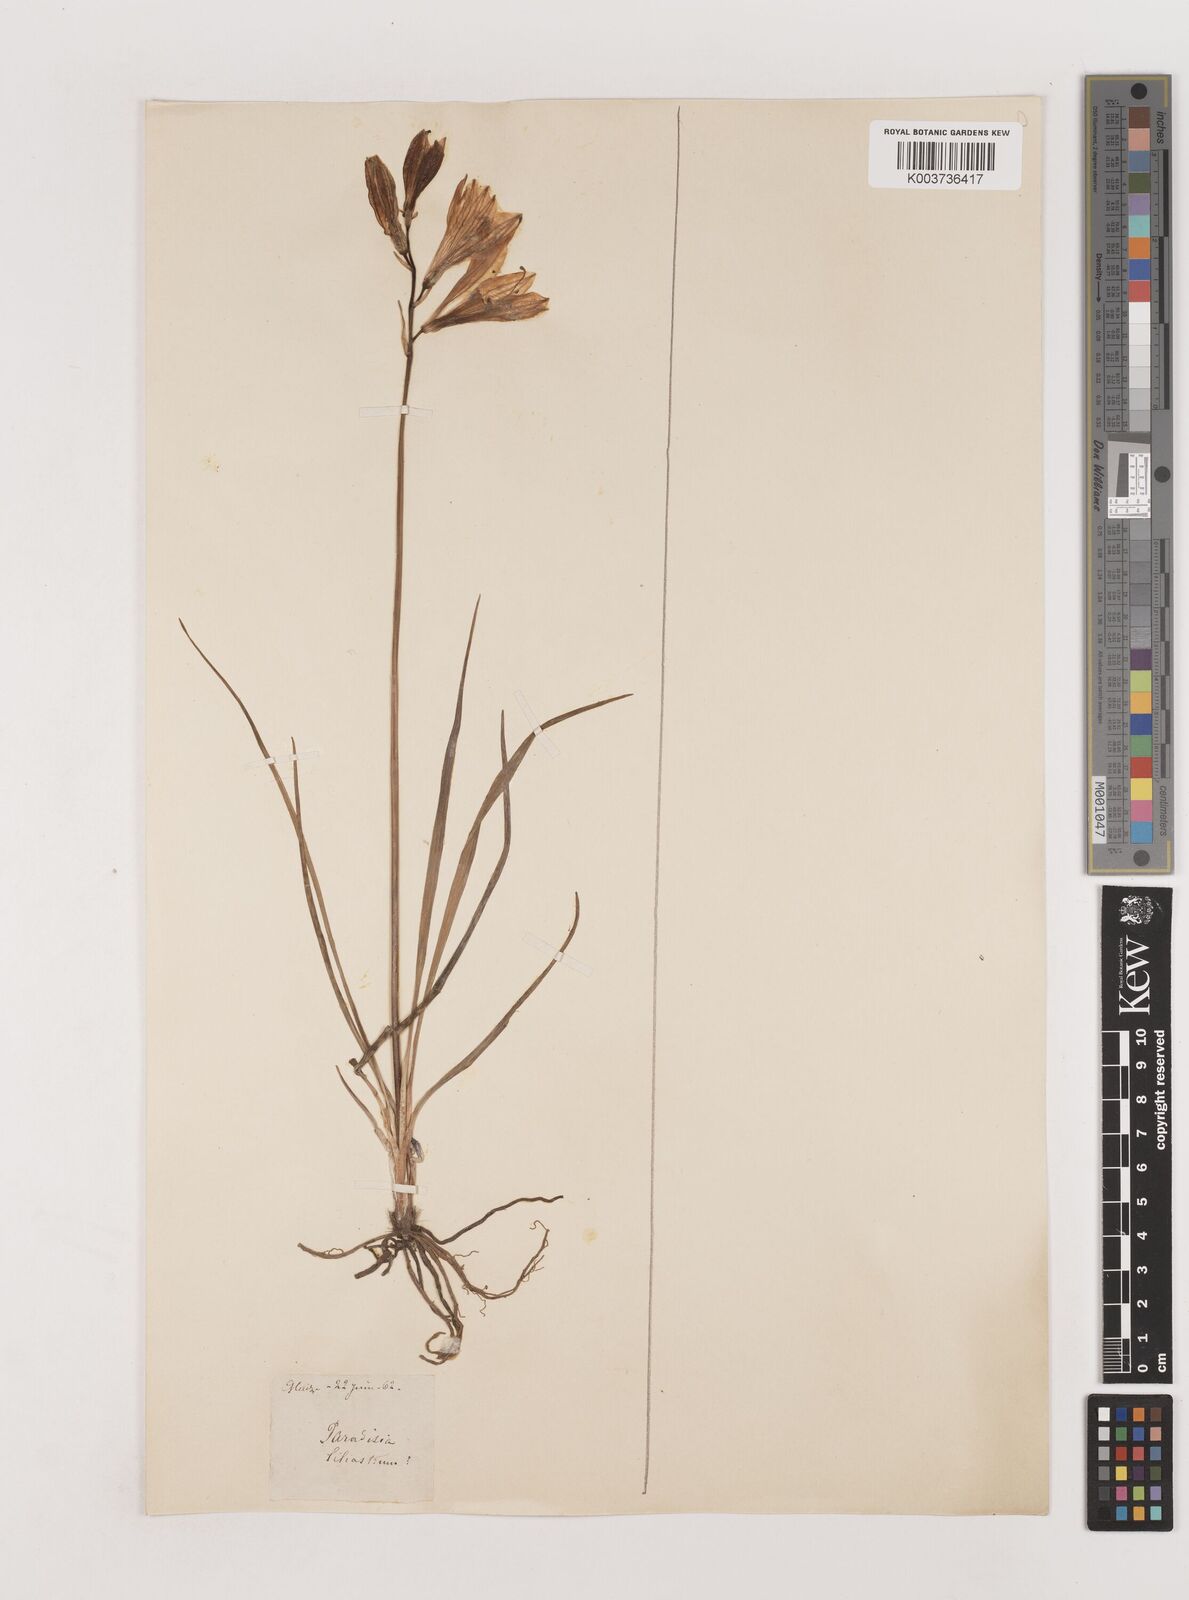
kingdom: Plantae
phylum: Tracheophyta
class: Liliopsida
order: Asparagales
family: Asparagaceae
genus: Paradisea
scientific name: Paradisea liliastrum
